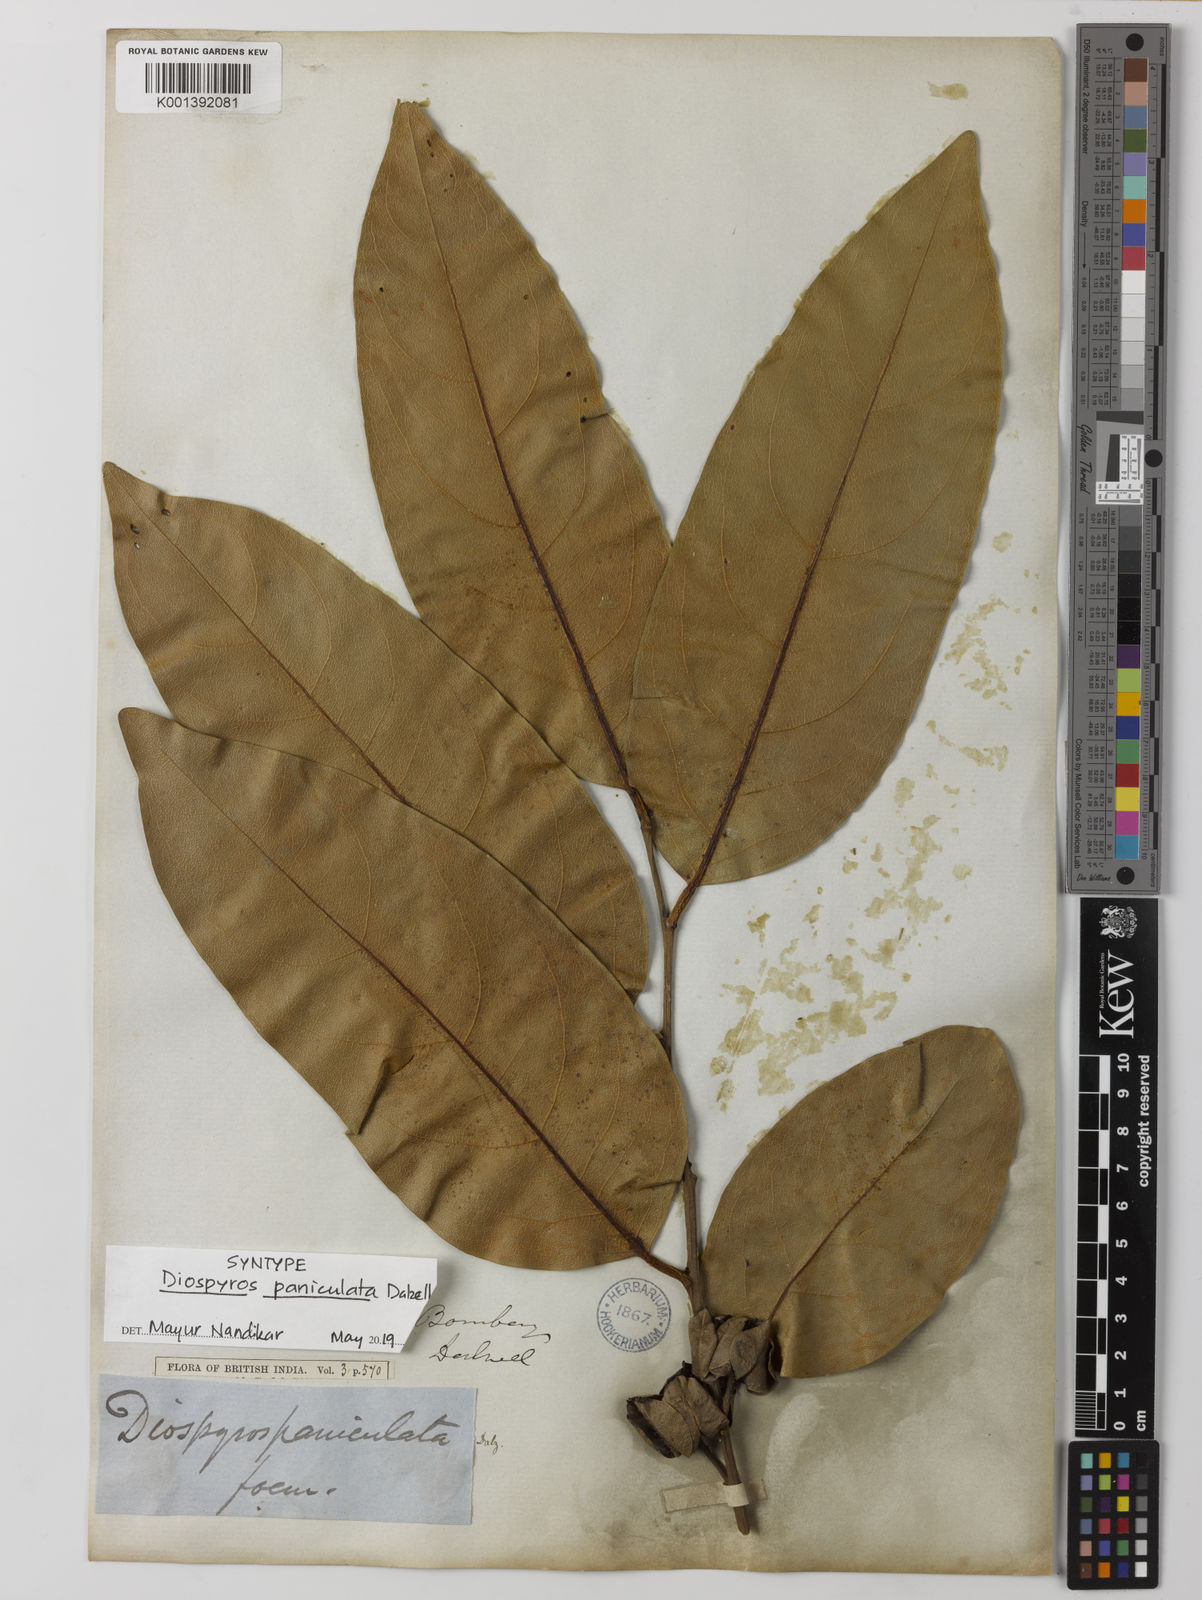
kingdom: Plantae
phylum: Tracheophyta
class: Magnoliopsida
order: Ericales
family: Ebenaceae
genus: Diospyros
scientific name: Diospyros paniculata
